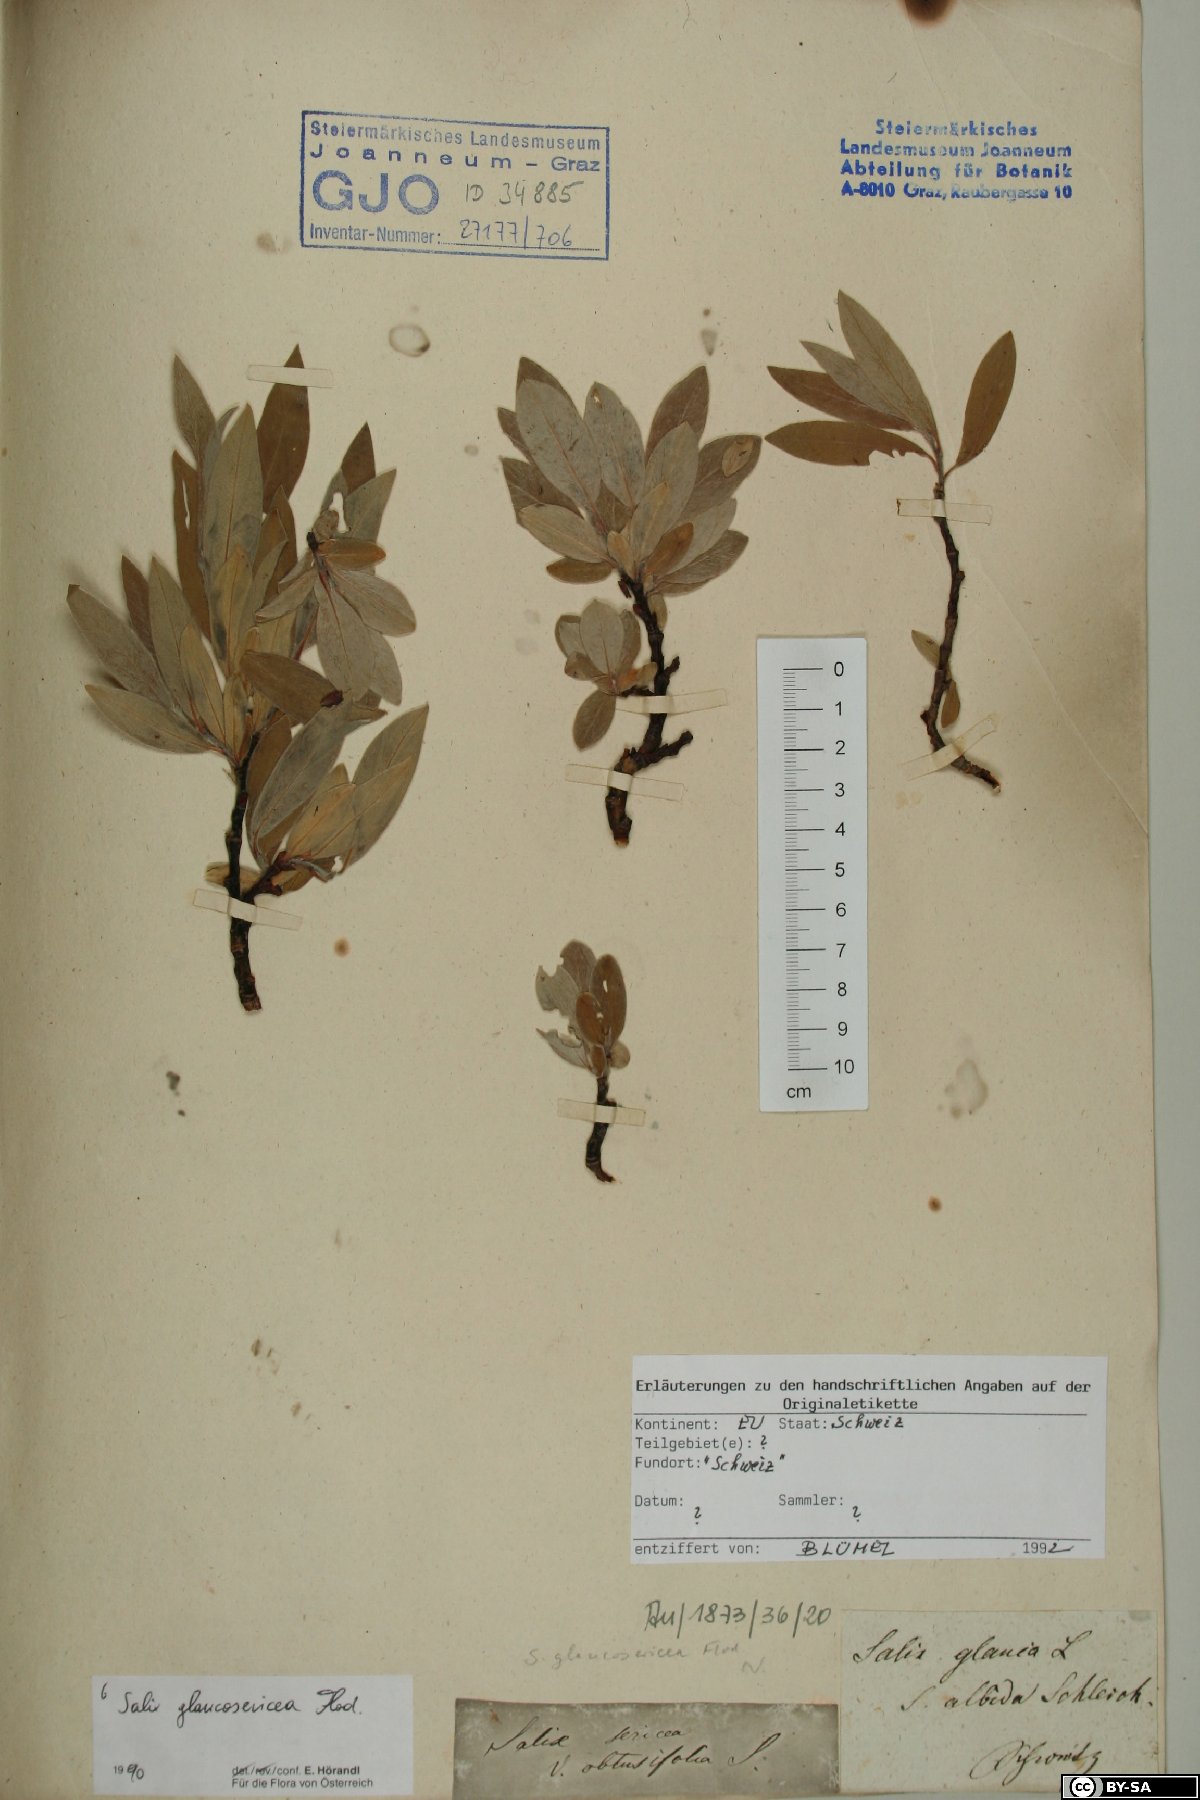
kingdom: Plantae
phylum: Tracheophyta
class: Magnoliopsida
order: Malpighiales
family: Salicaceae
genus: Salix
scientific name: Salix glaucosericea
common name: Alpine gray willow
